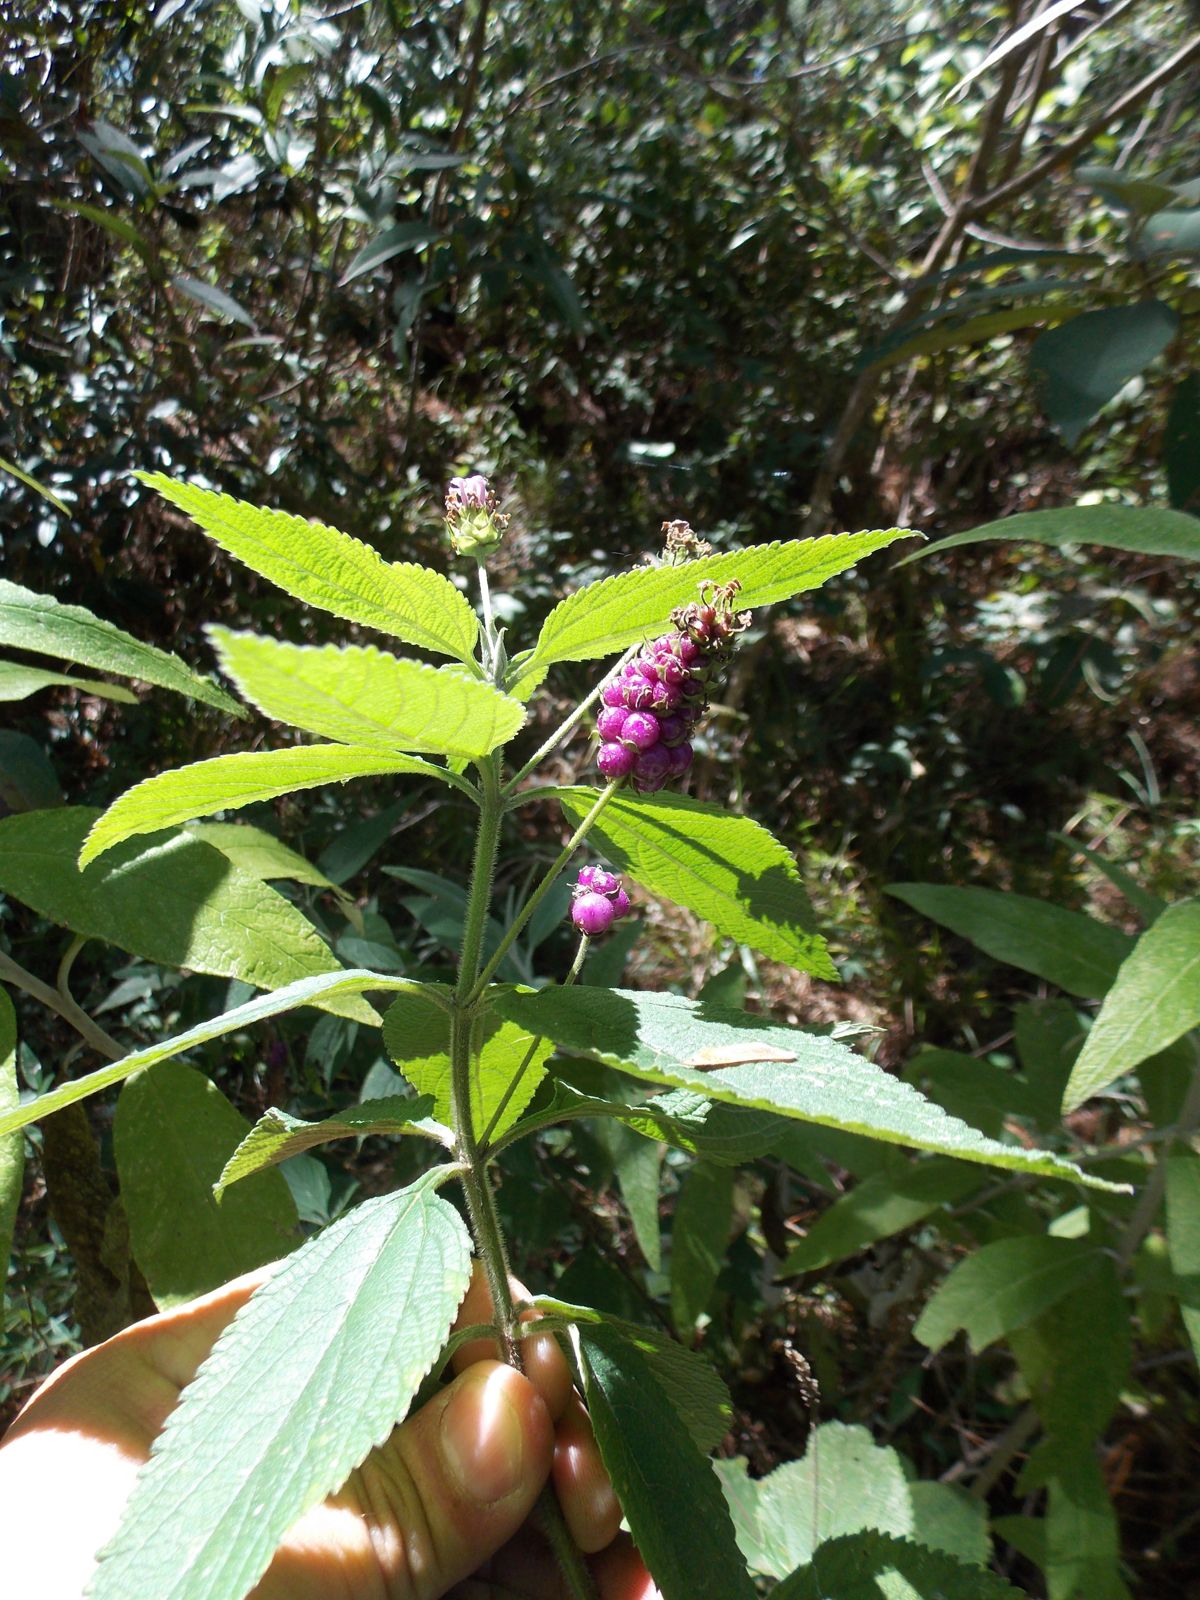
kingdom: Plantae
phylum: Tracheophyta
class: Magnoliopsida
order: Lamiales
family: Verbenaceae
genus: Lantana
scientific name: Lantana trifolia
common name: Sweet-sage
